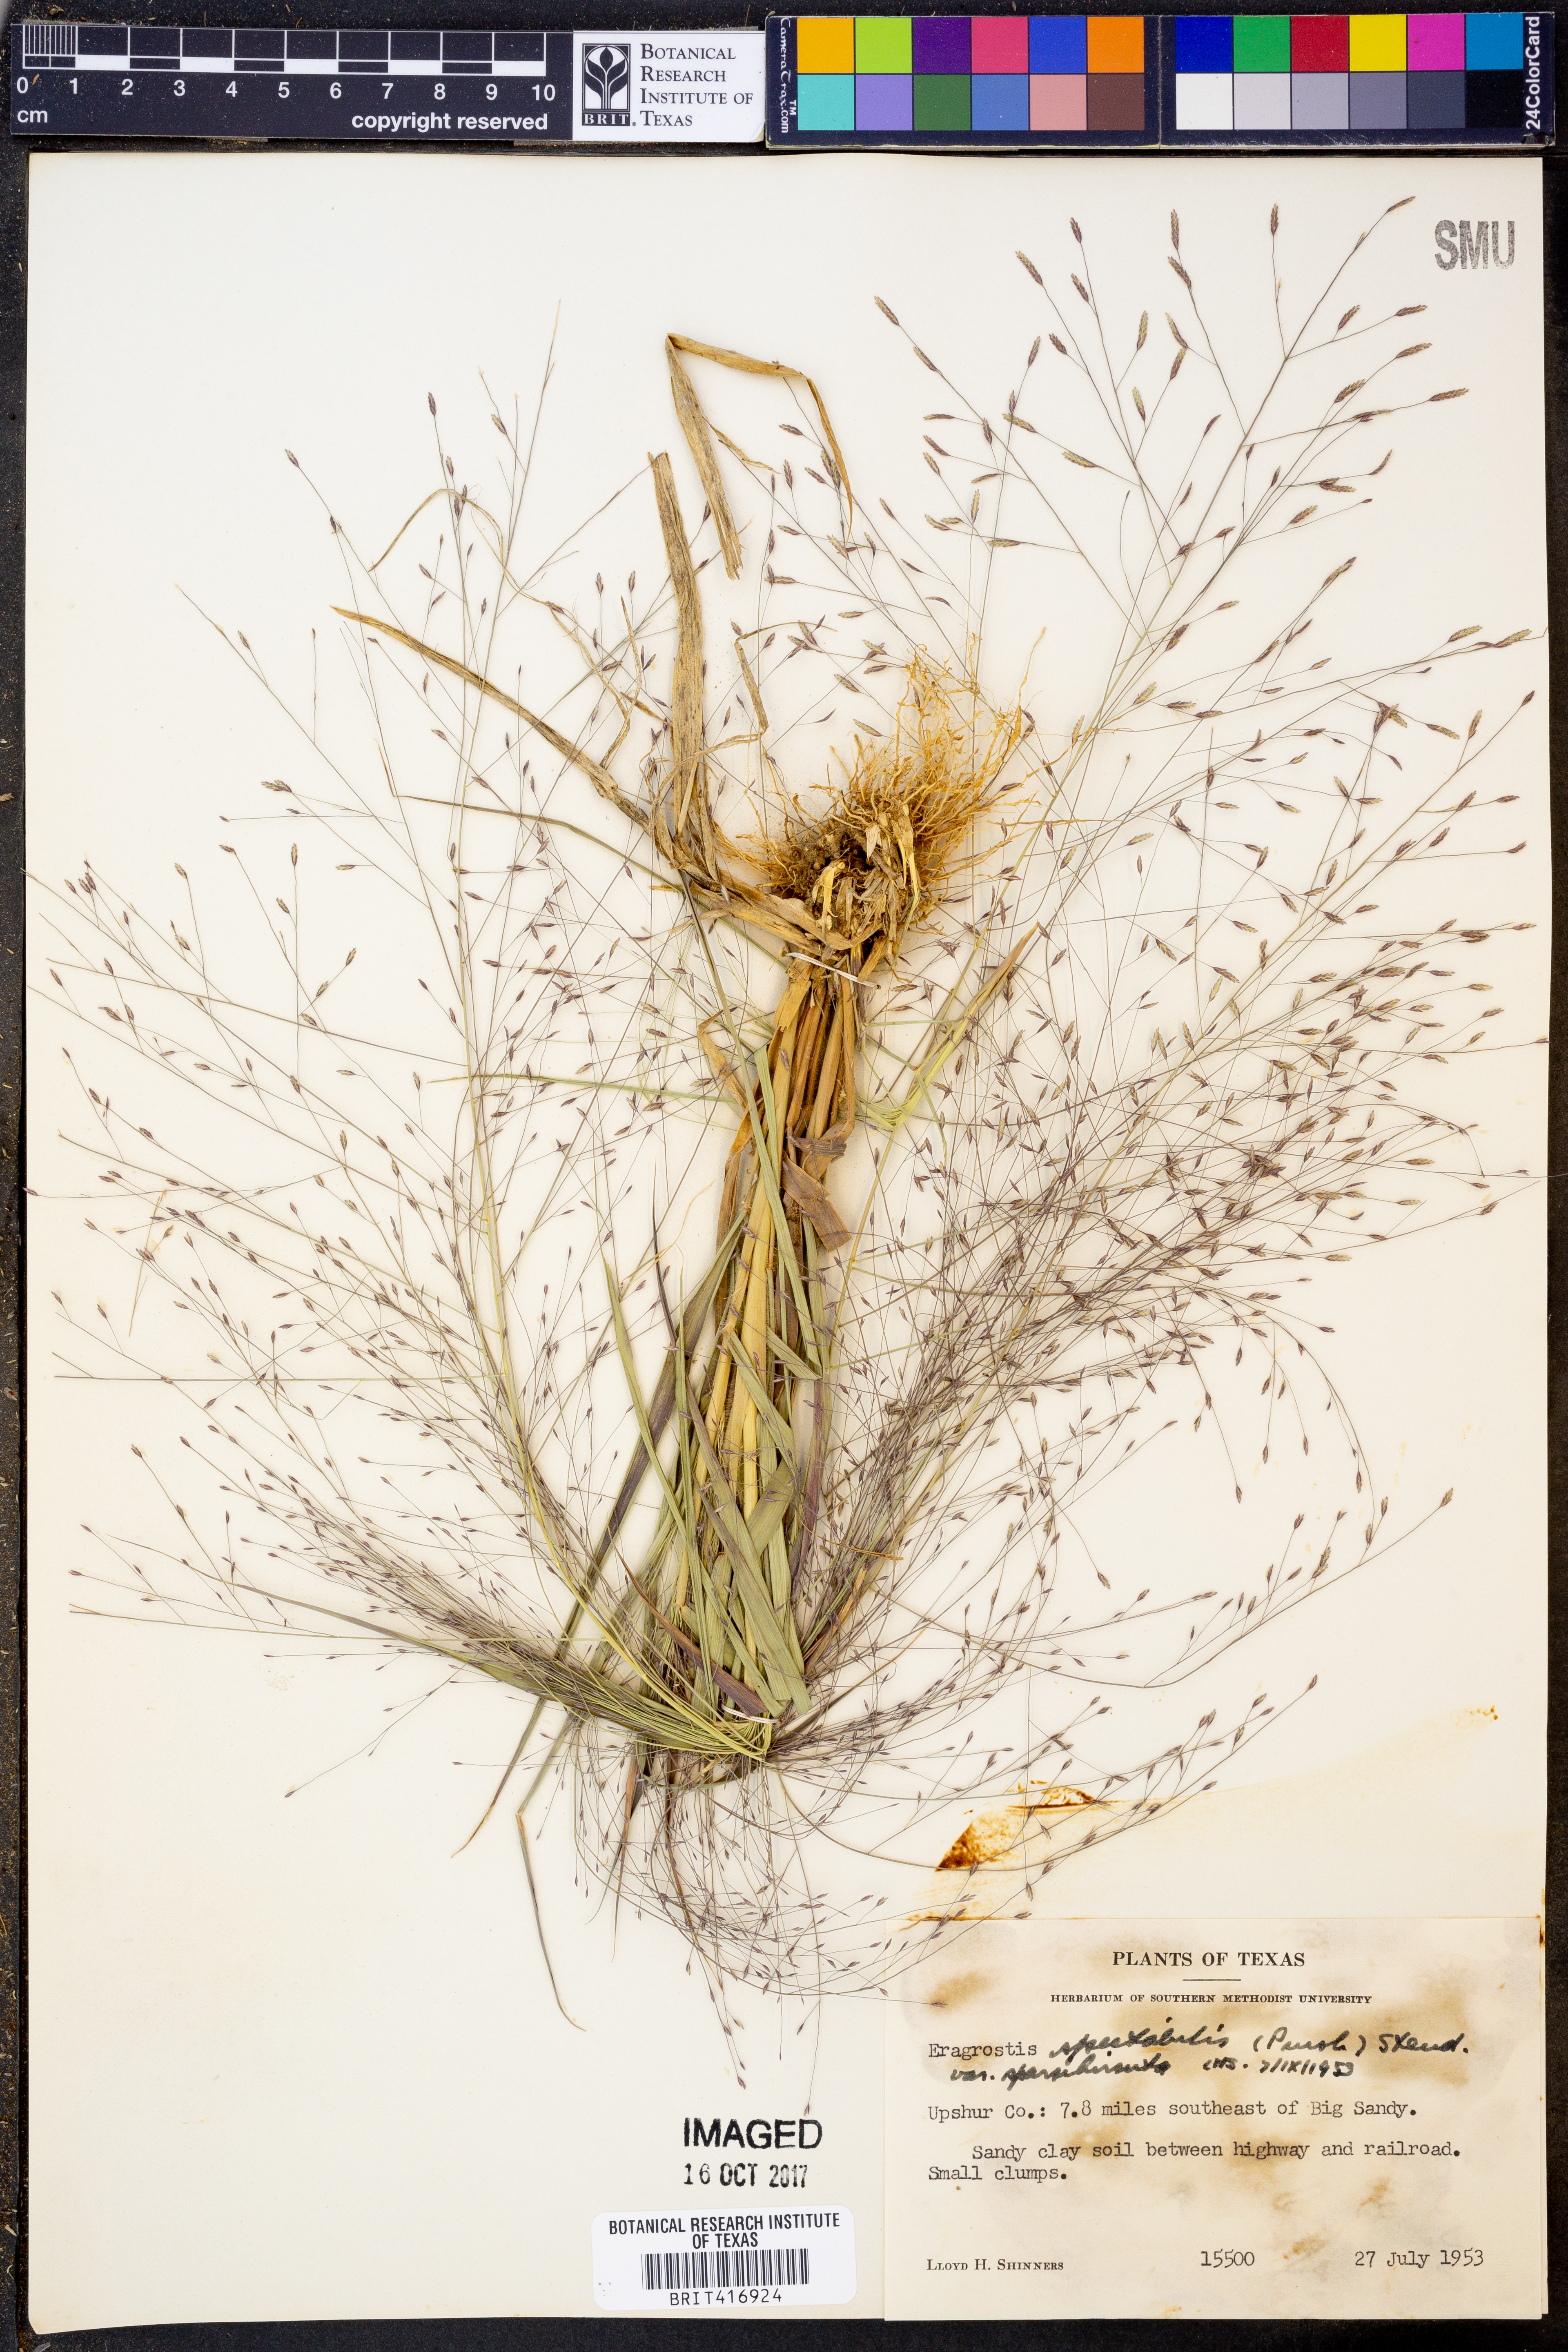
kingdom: Plantae
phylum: Tracheophyta
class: Liliopsida
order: Poales
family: Poaceae
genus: Eragrostis
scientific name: Eragrostis spectabilis
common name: Petticoat-climber
